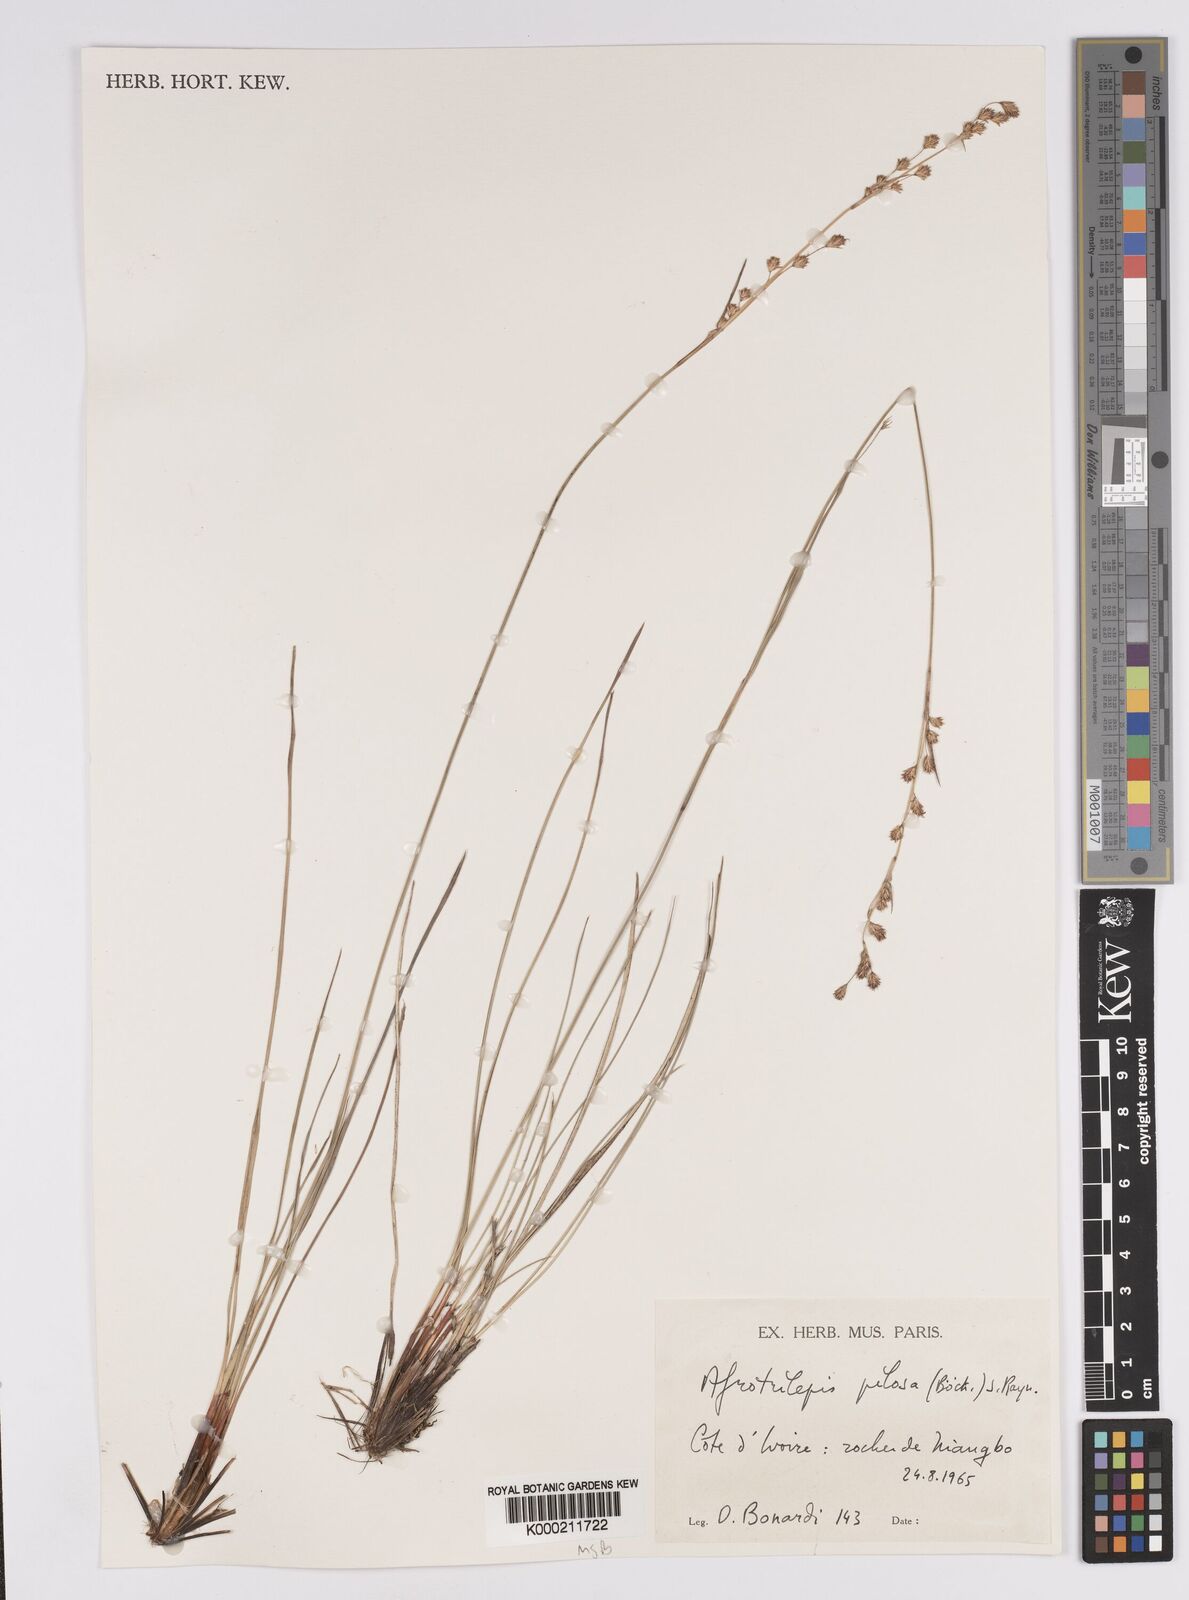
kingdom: Plantae
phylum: Tracheophyta
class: Liliopsida
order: Poales
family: Cyperaceae
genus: Afrotrilepis
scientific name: Afrotrilepis pilosa
